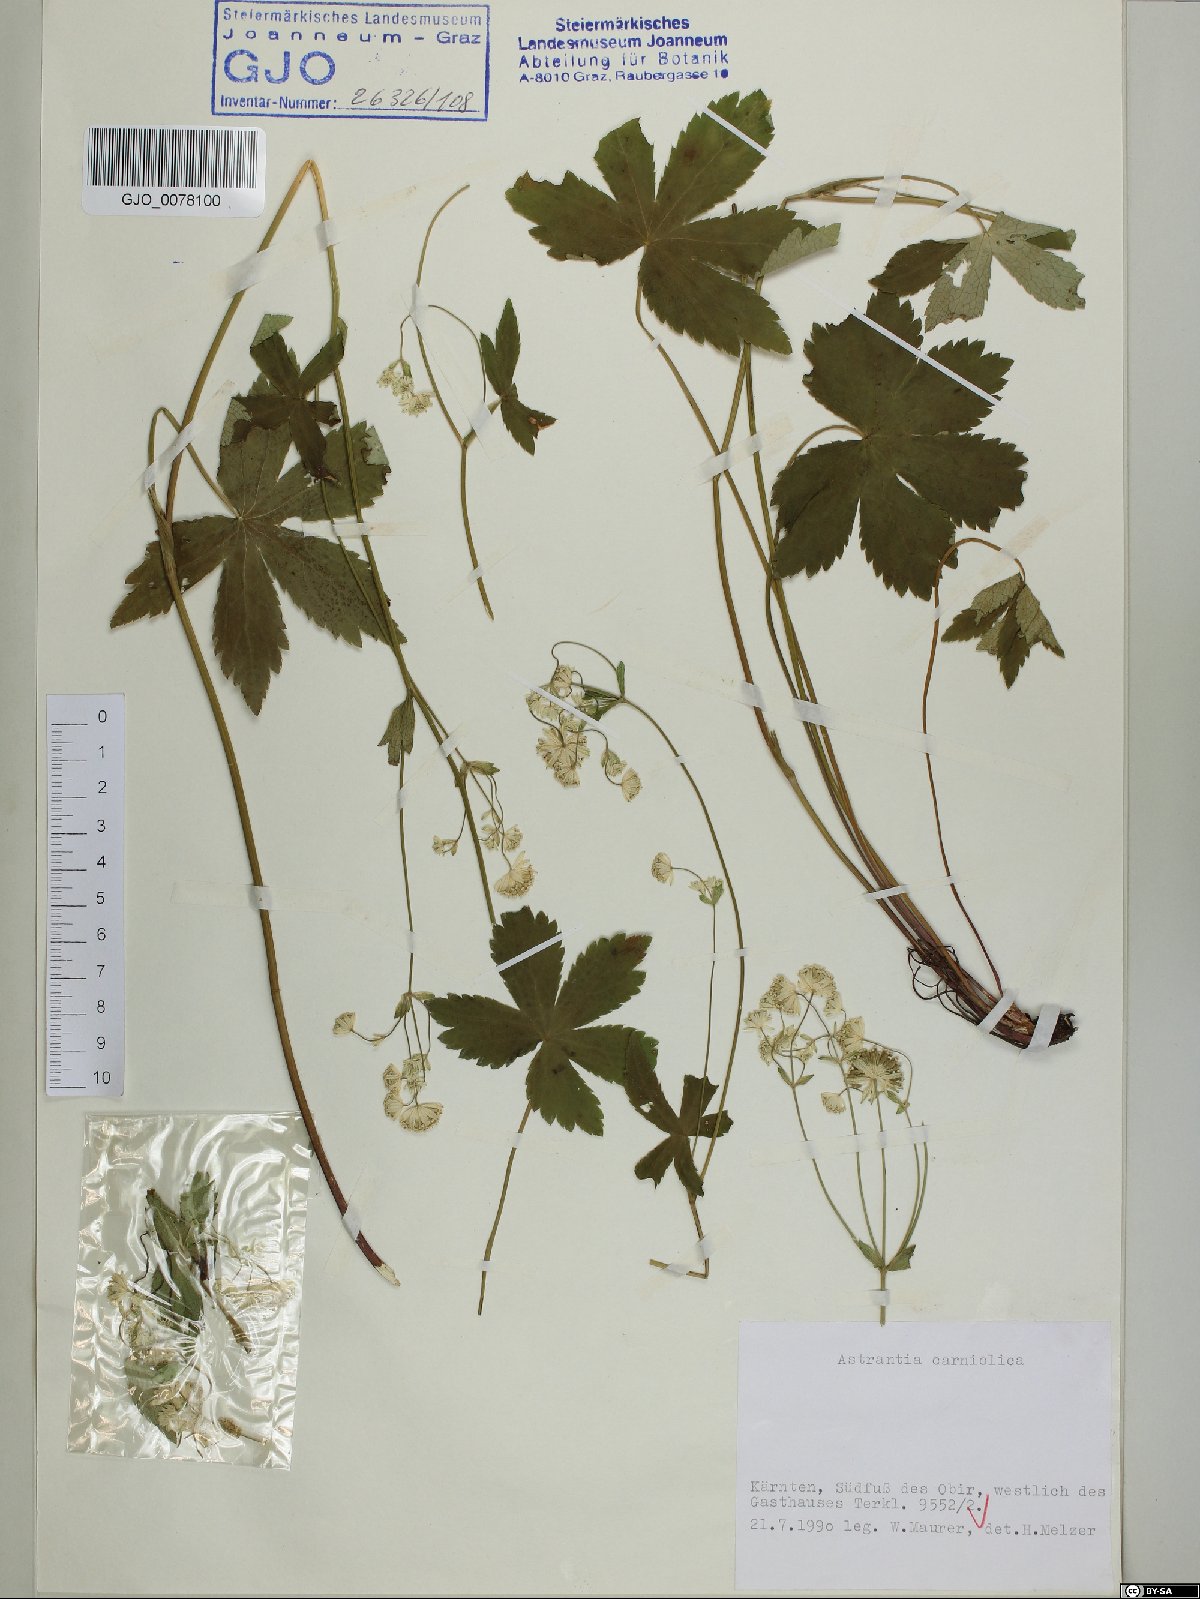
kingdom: Plantae
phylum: Tracheophyta
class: Magnoliopsida
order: Apiales
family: Apiaceae
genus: Astrantia
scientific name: Astrantia carniolica
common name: Carnic masterwort
